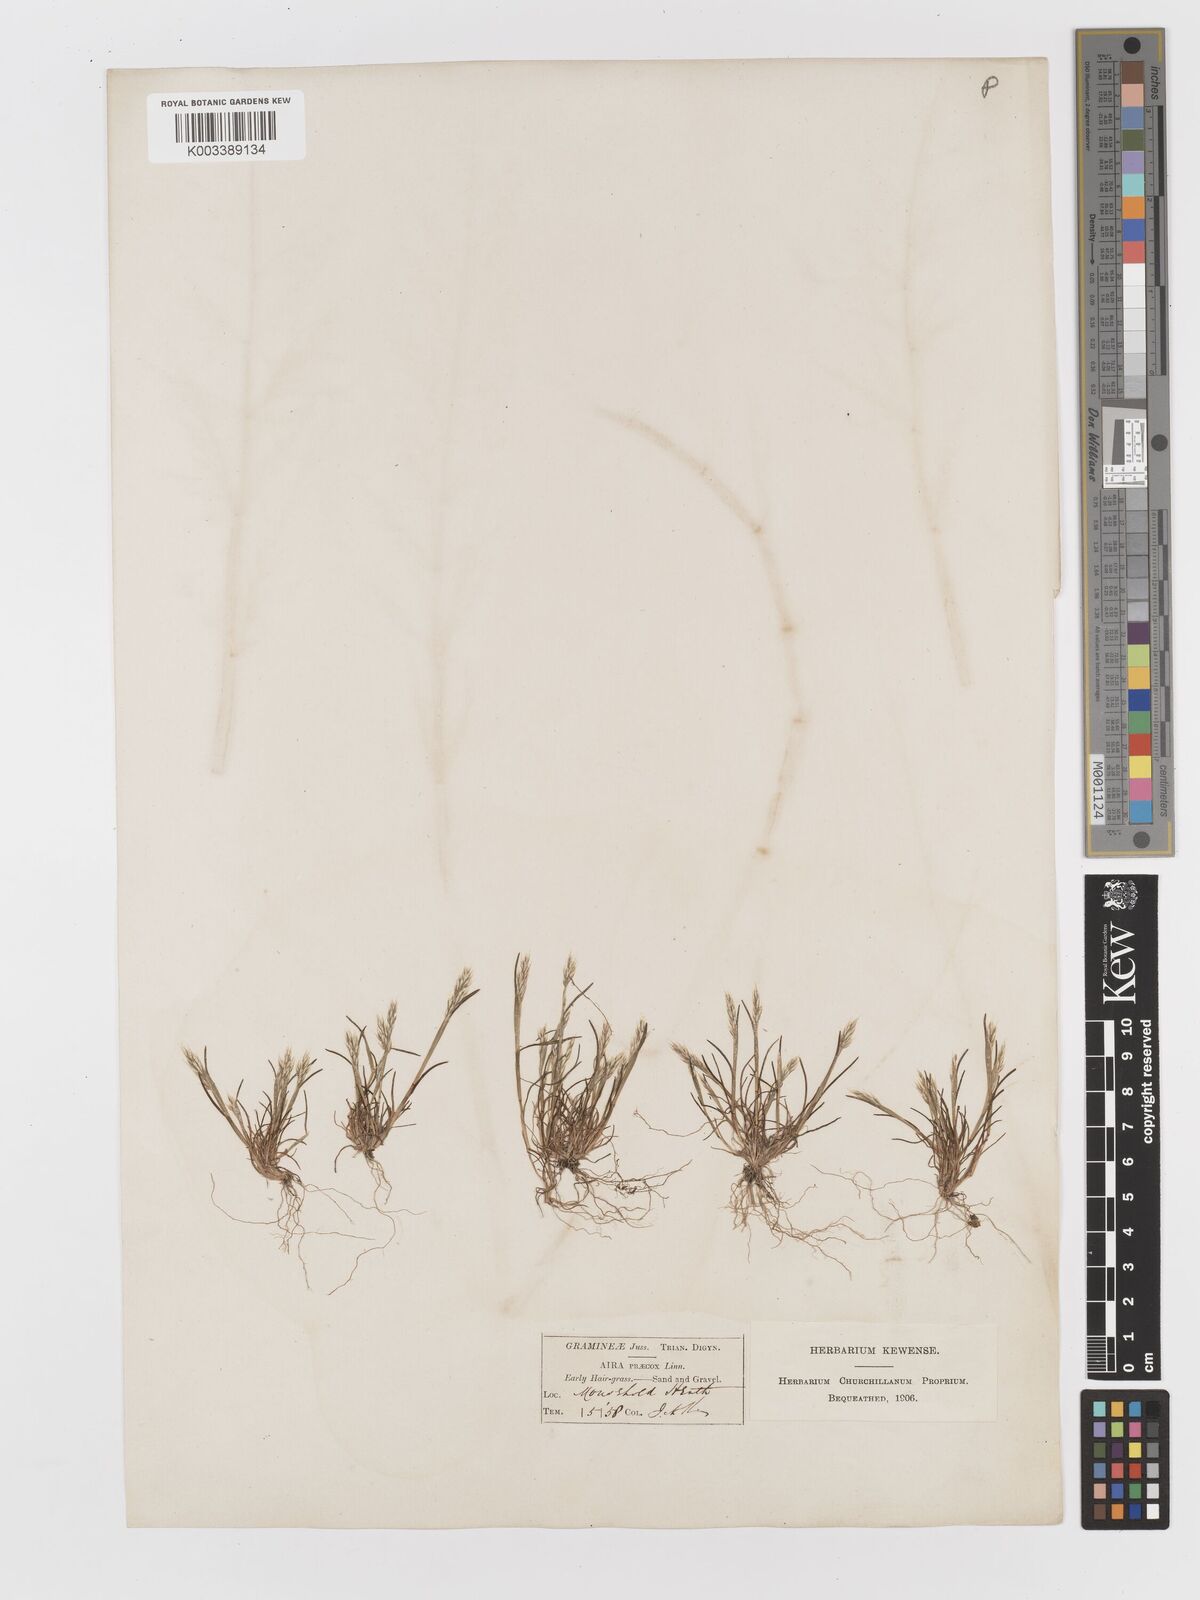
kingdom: Plantae
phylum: Tracheophyta
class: Liliopsida
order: Poales
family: Poaceae
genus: Aira
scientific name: Aira praecox
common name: Early hair-grass
